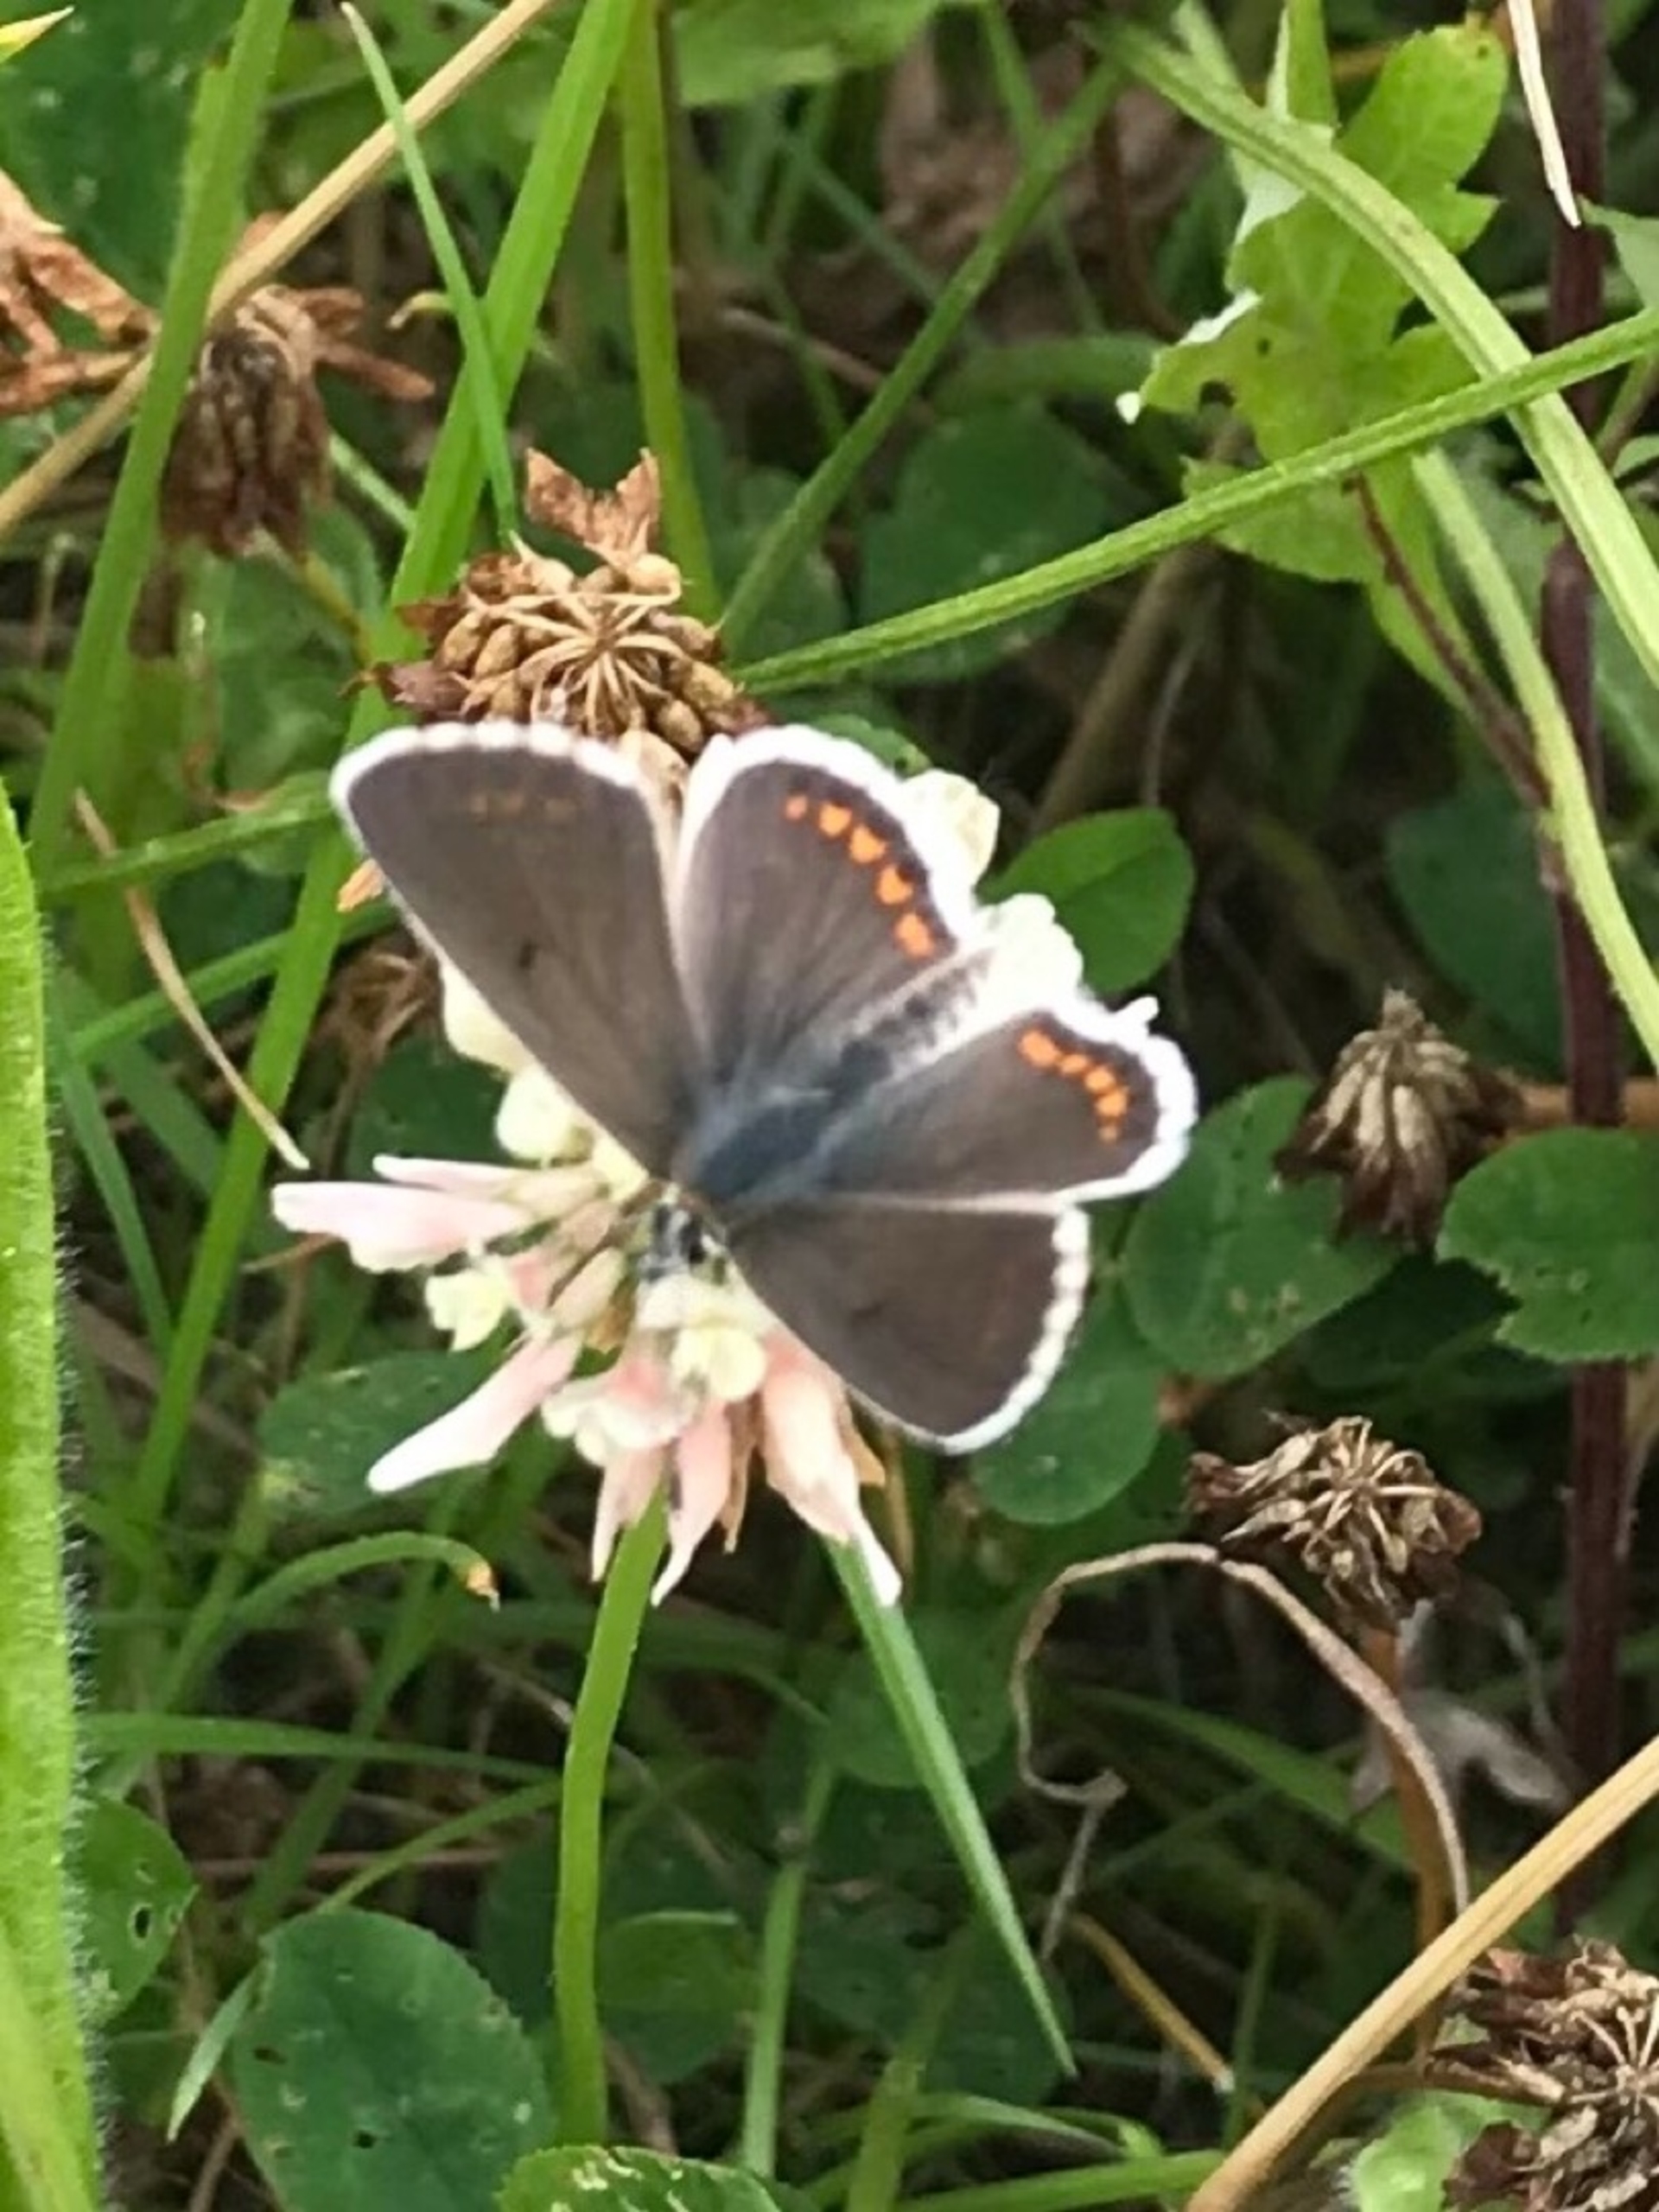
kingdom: Animalia
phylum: Arthropoda
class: Insecta
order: Lepidoptera
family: Lycaenidae
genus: Aricia
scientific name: Aricia agestis
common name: Rødplettet blåfugl
